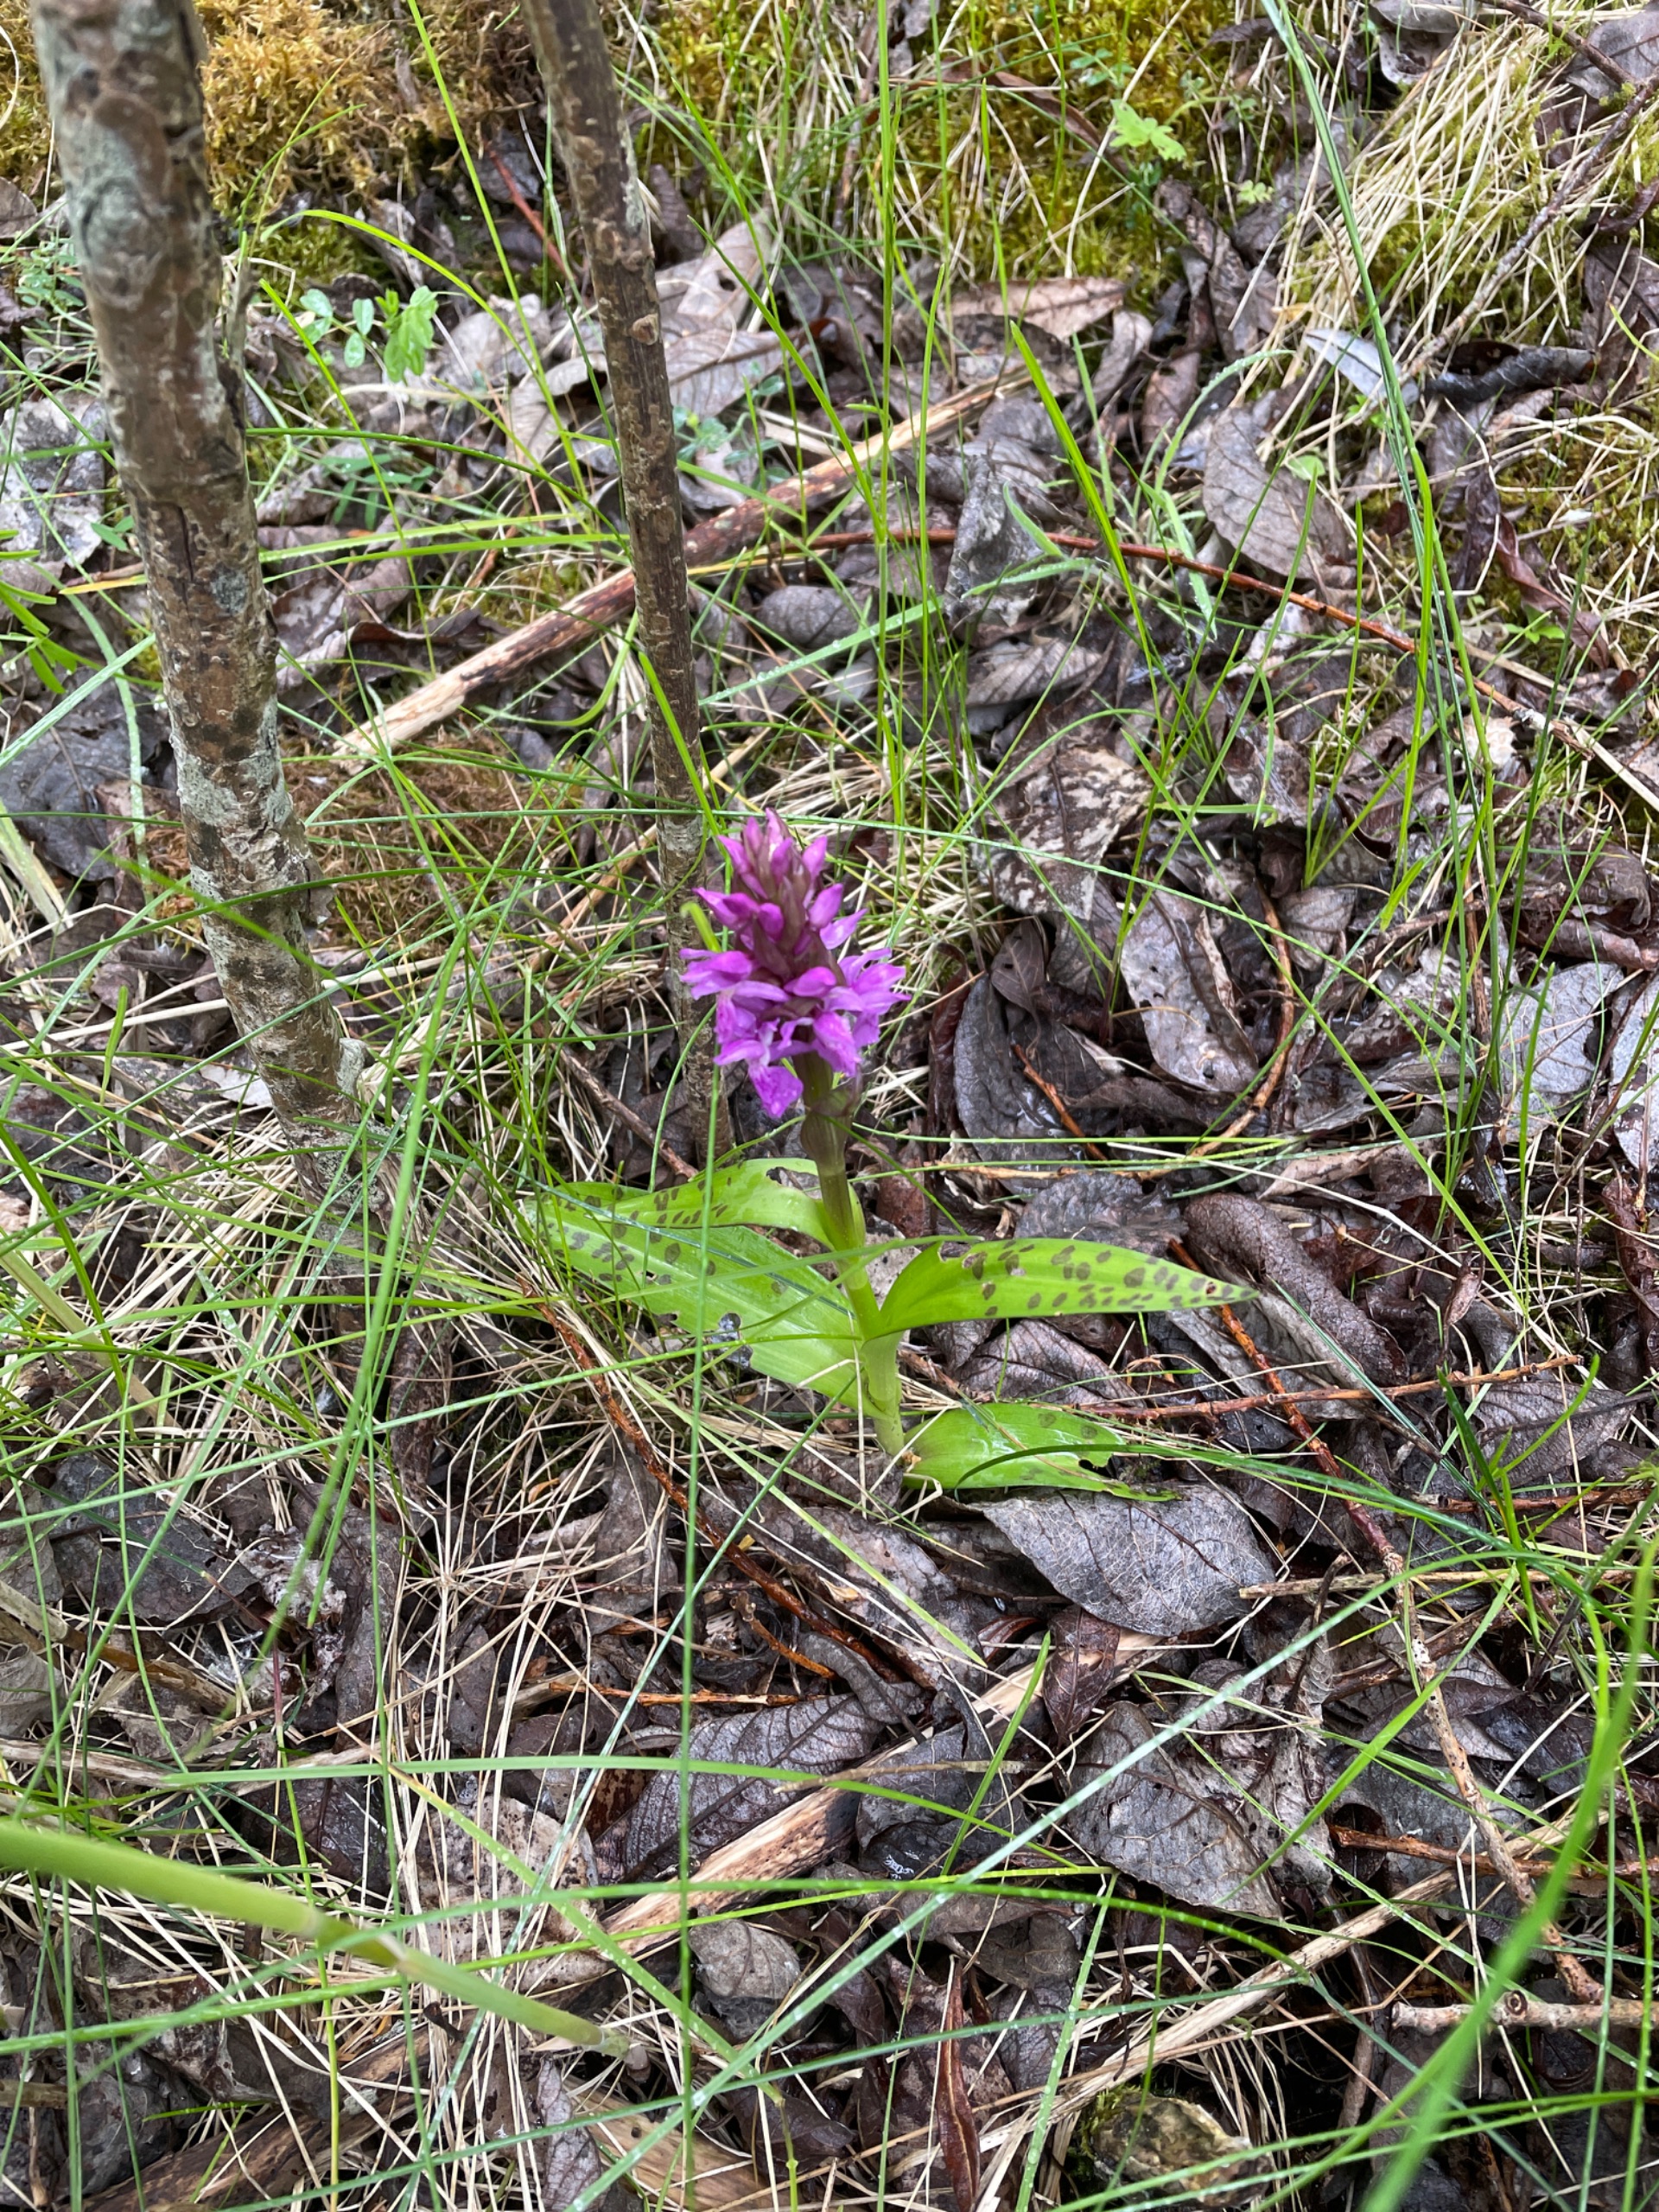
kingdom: Plantae
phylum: Tracheophyta
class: Liliopsida
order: Asparagales
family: Orchidaceae
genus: Dactylorhiza
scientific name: Dactylorhiza majalis
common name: Maj-gøgeurt
